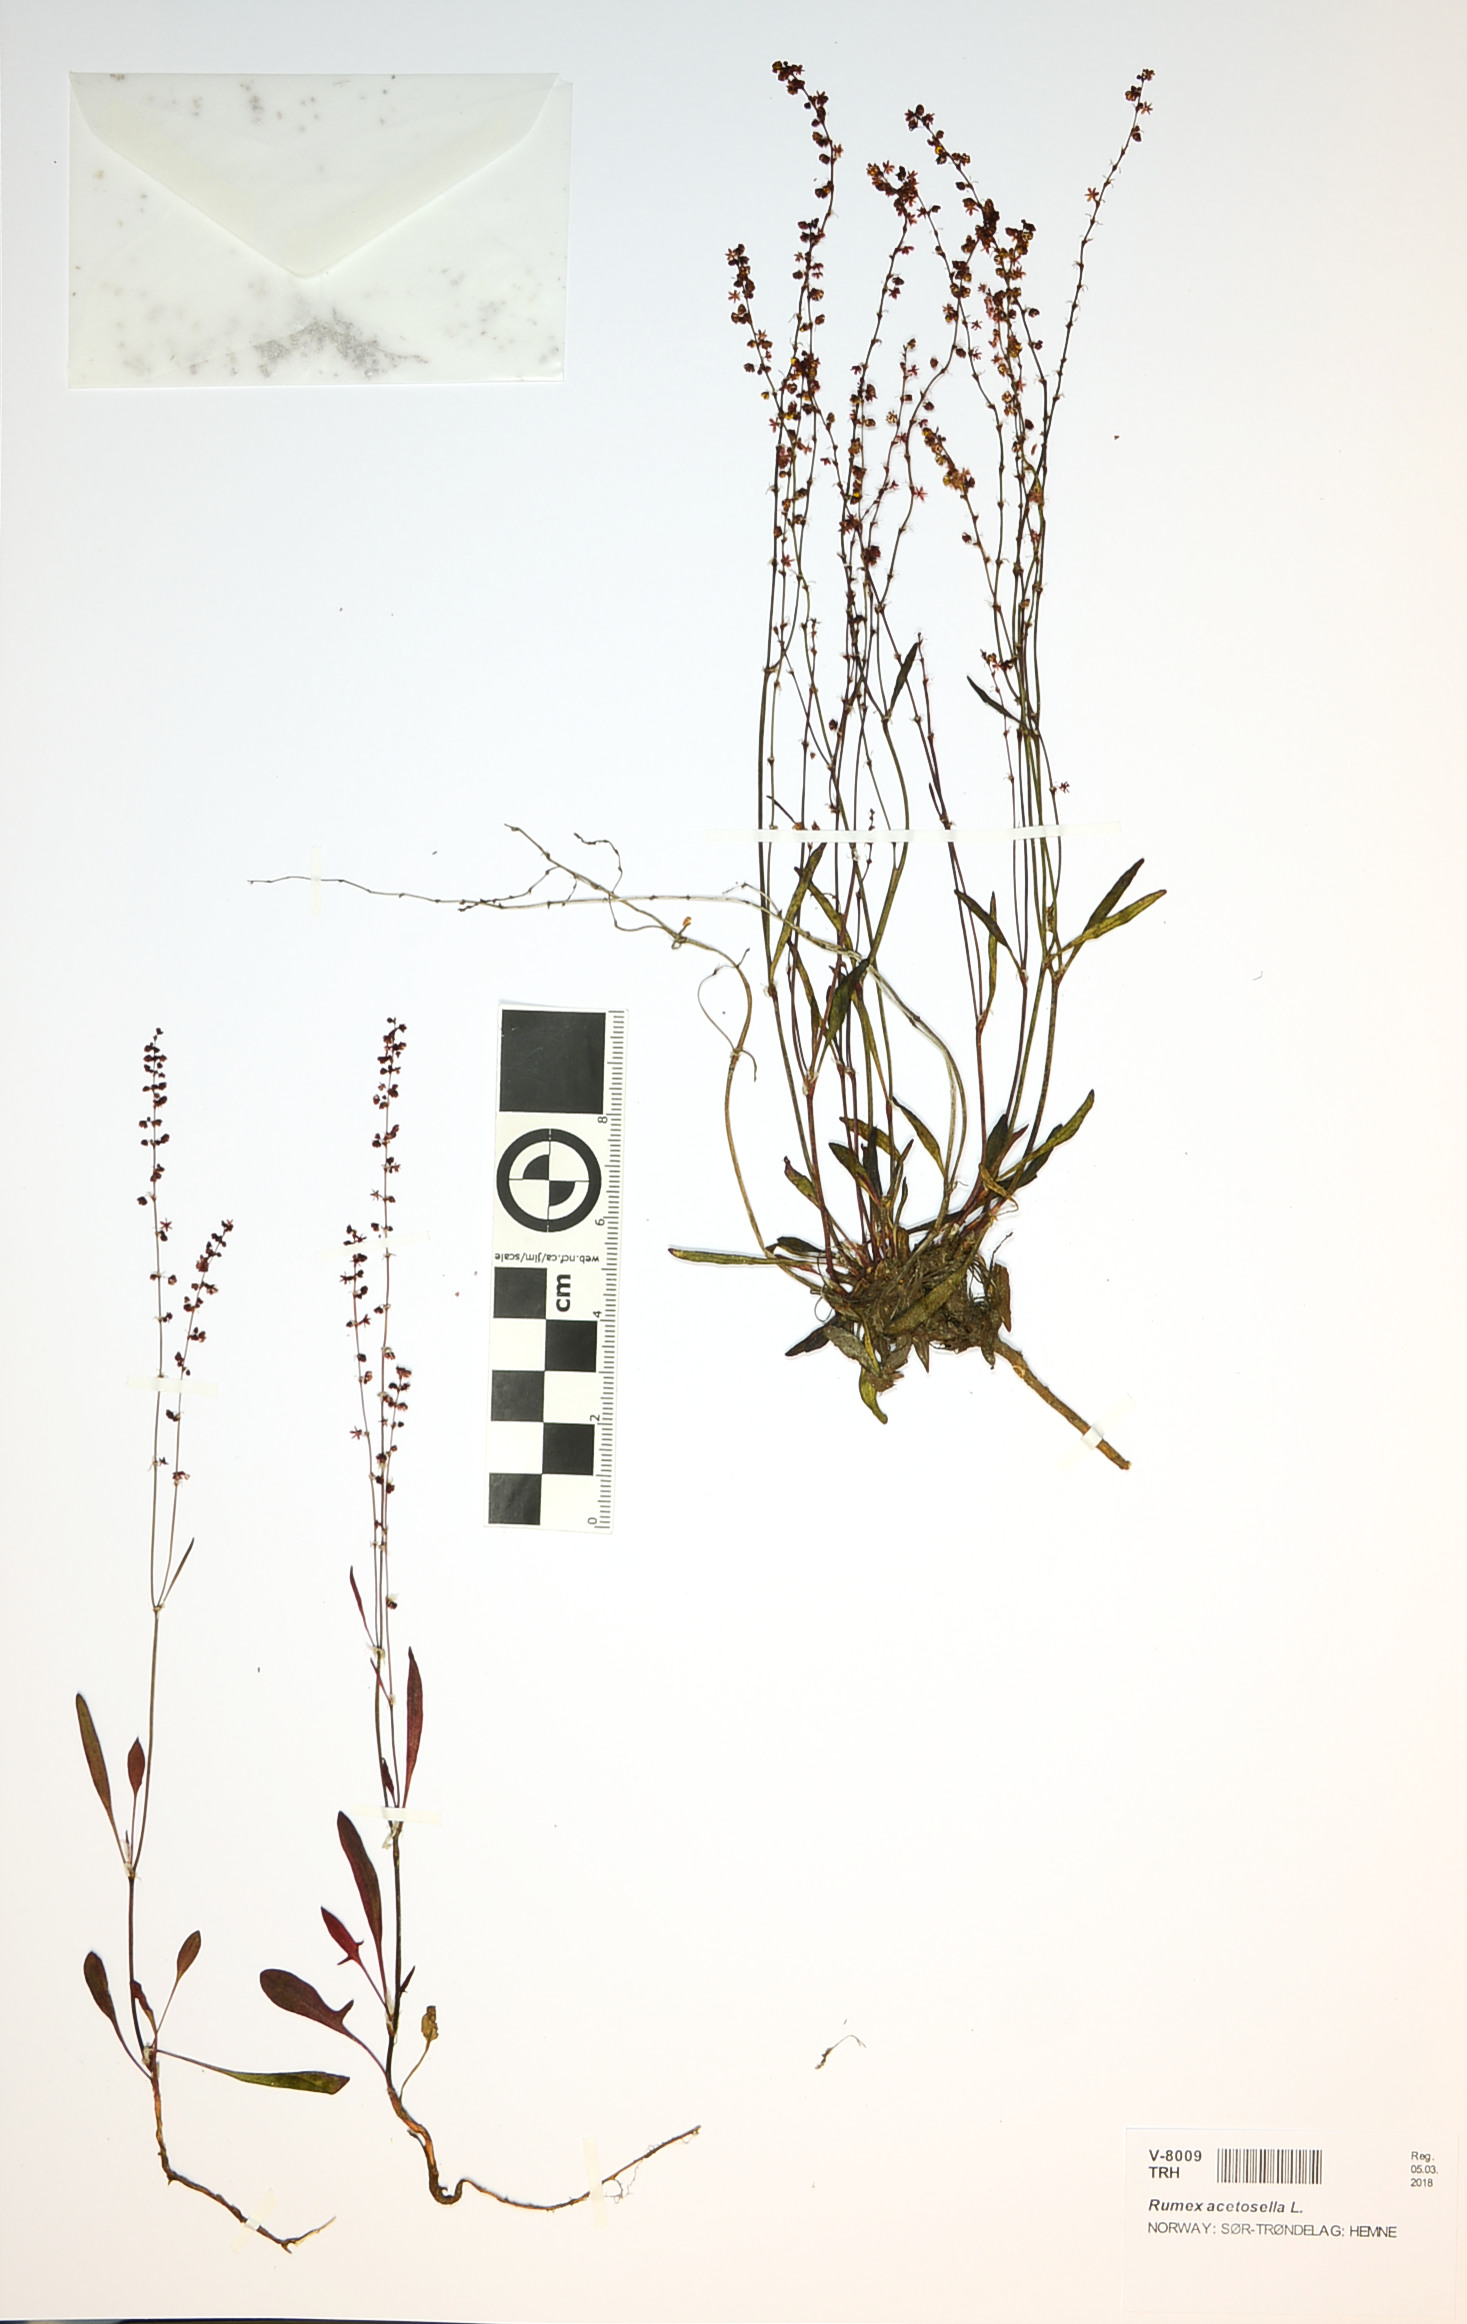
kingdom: Plantae
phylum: Tracheophyta
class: Magnoliopsida
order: Caryophyllales
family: Polygonaceae
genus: Rumex
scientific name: Rumex acetosella
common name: Common sheep sorrel
